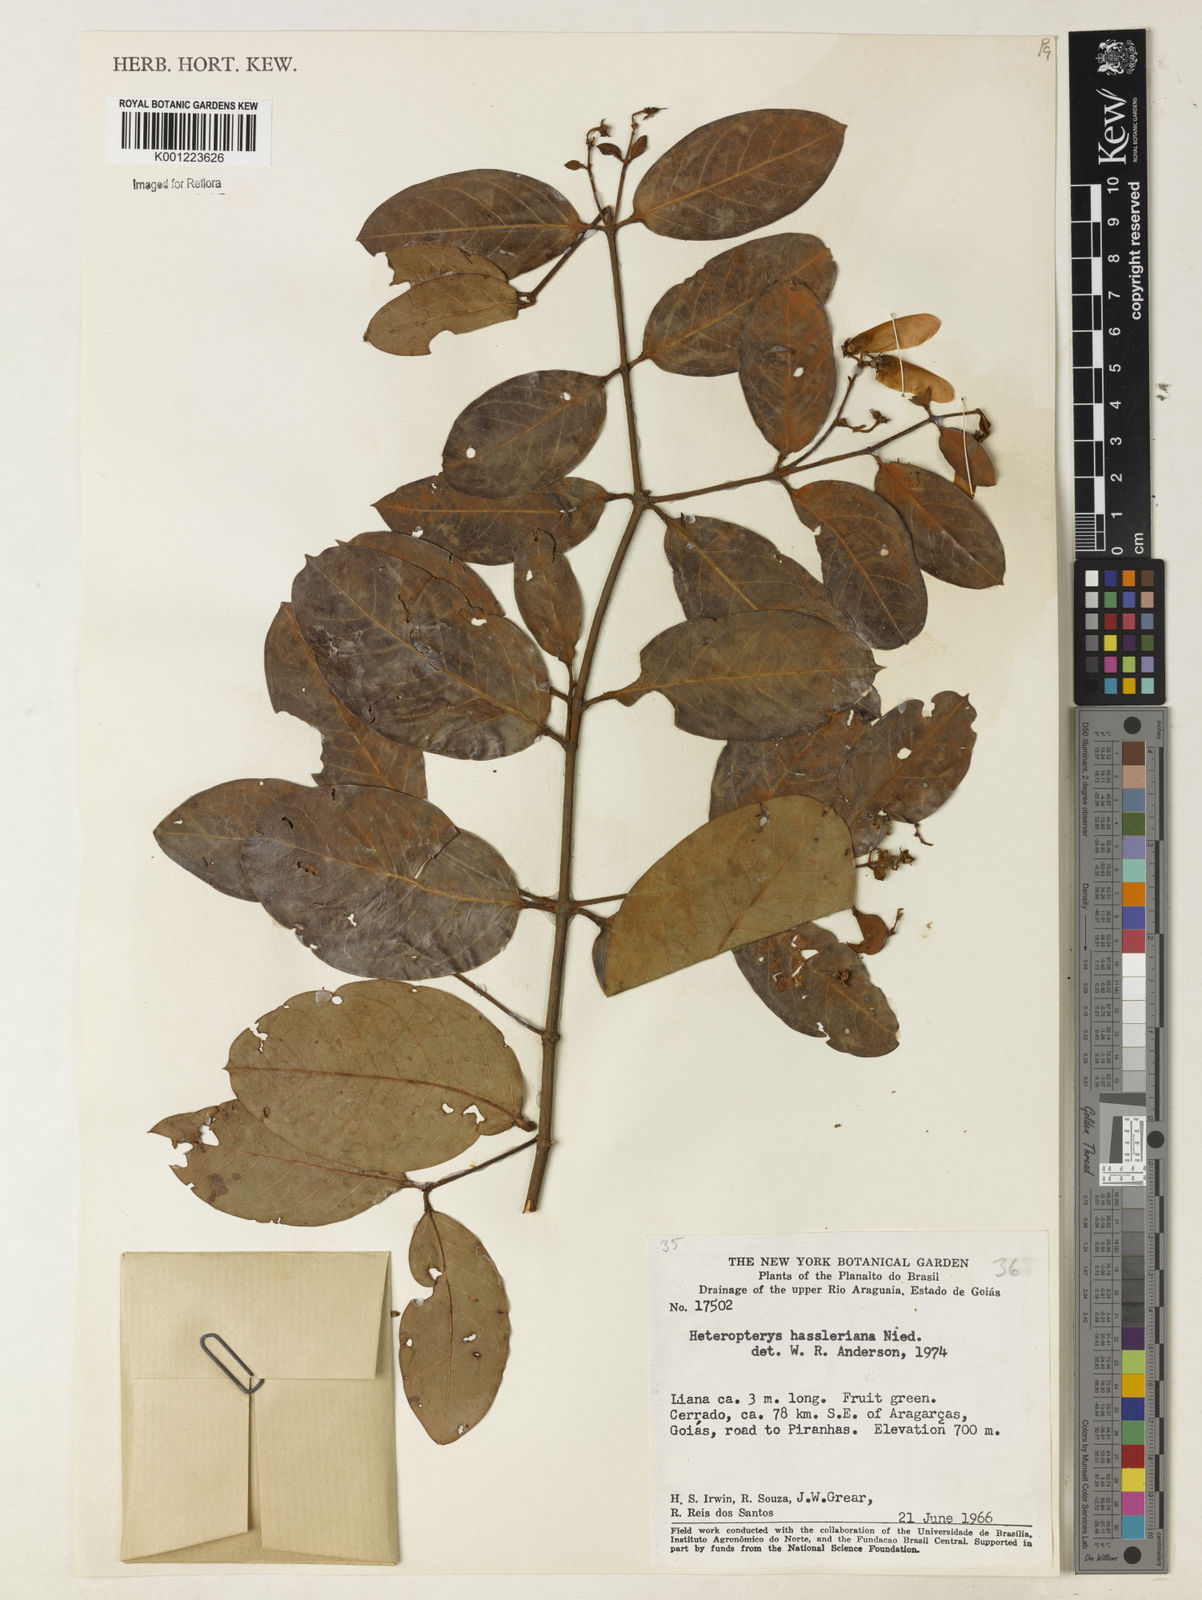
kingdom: Plantae
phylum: Tracheophyta
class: Magnoliopsida
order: Malpighiales
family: Malpighiaceae
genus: Heteropterys
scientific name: Heteropterys cochleosperma
